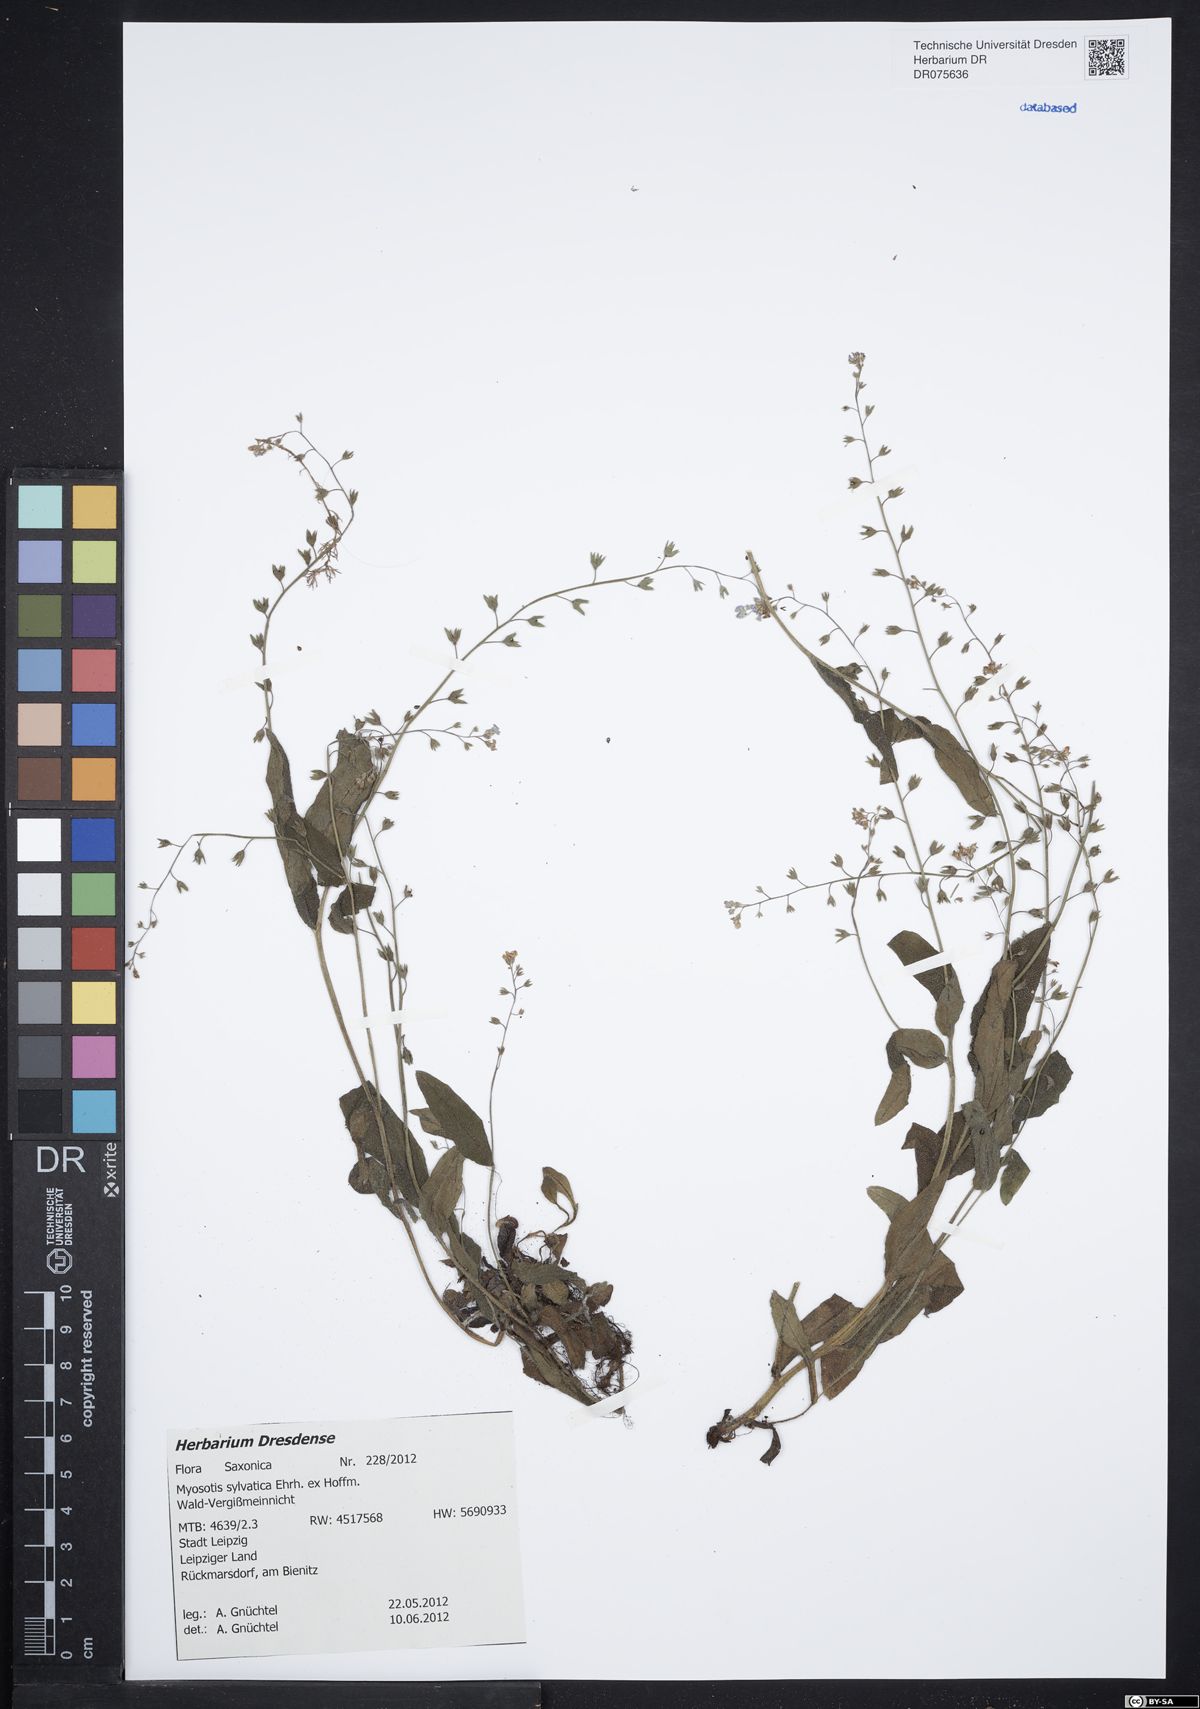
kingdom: Plantae
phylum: Tracheophyta
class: Magnoliopsida
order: Boraginales
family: Boraginaceae
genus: Myosotis
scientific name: Myosotis sylvatica
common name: Wood forget-me-not
